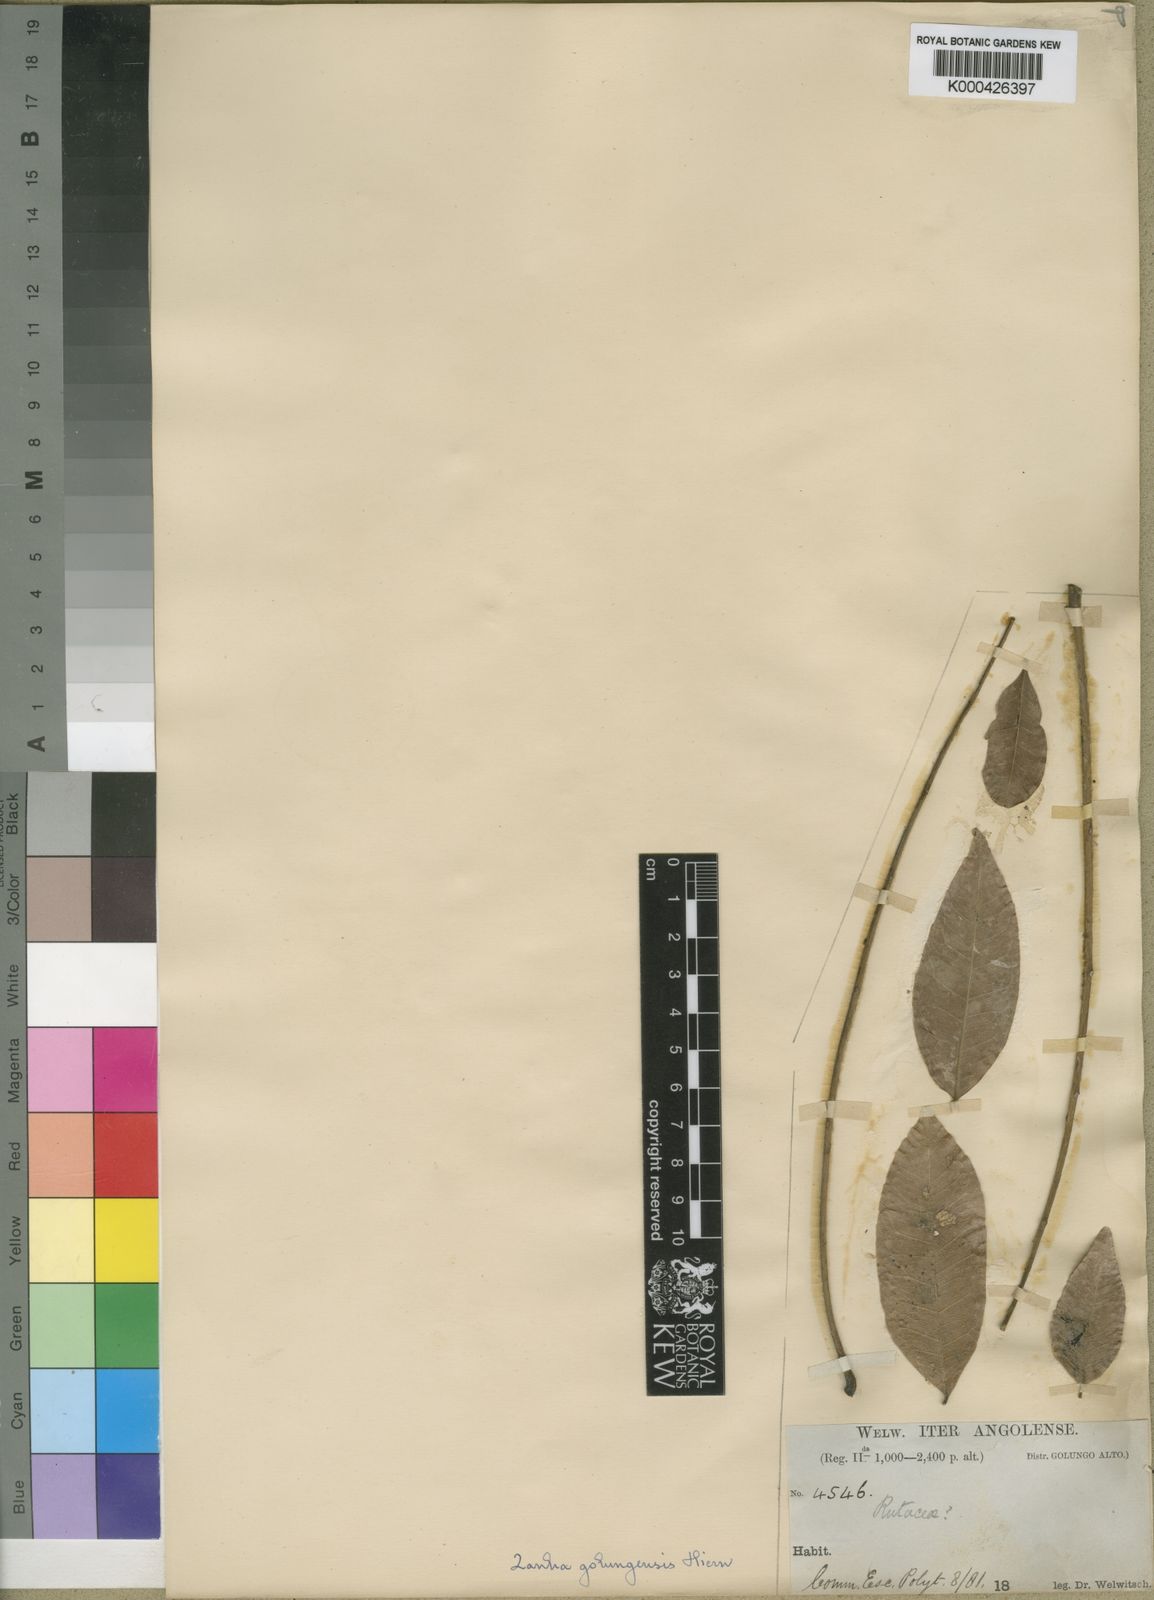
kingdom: Plantae
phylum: Tracheophyta
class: Magnoliopsida
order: Sapindales
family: Sapindaceae
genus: Zanha
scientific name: Zanha golungensis
